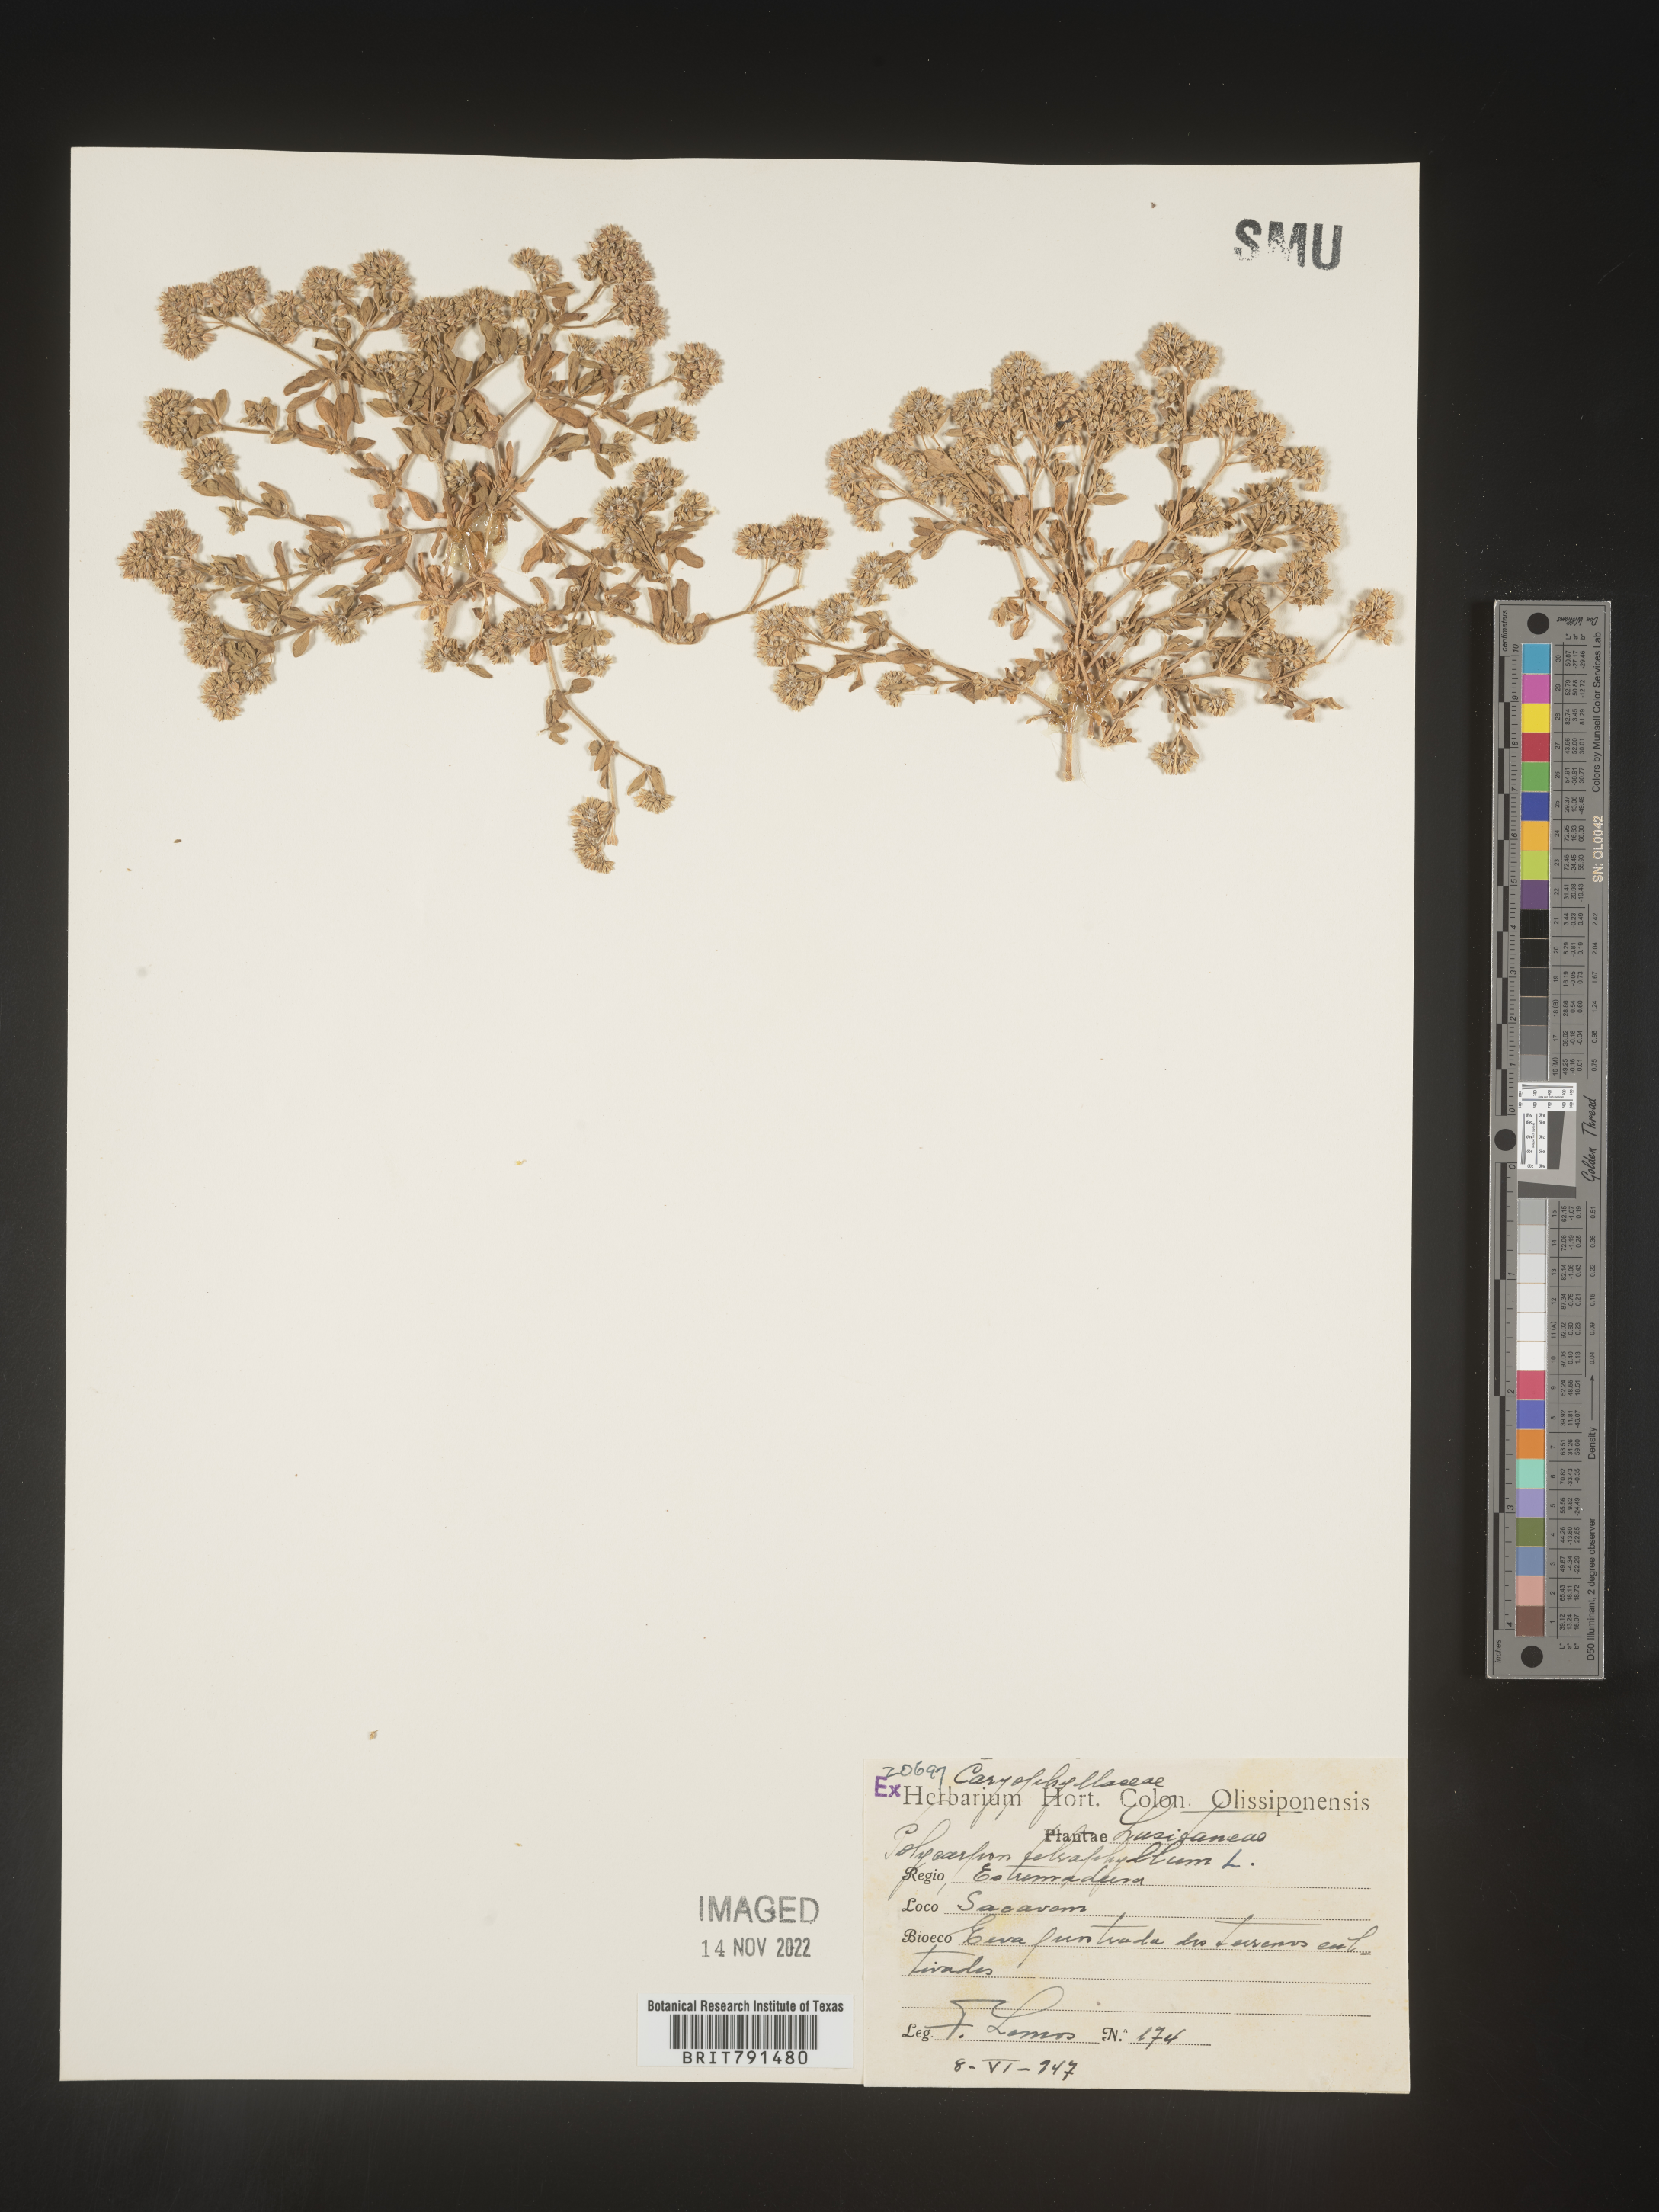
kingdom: Plantae
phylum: Tracheophyta
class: Magnoliopsida
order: Caryophyllales
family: Caryophyllaceae
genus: Polycarpon
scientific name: Polycarpon
